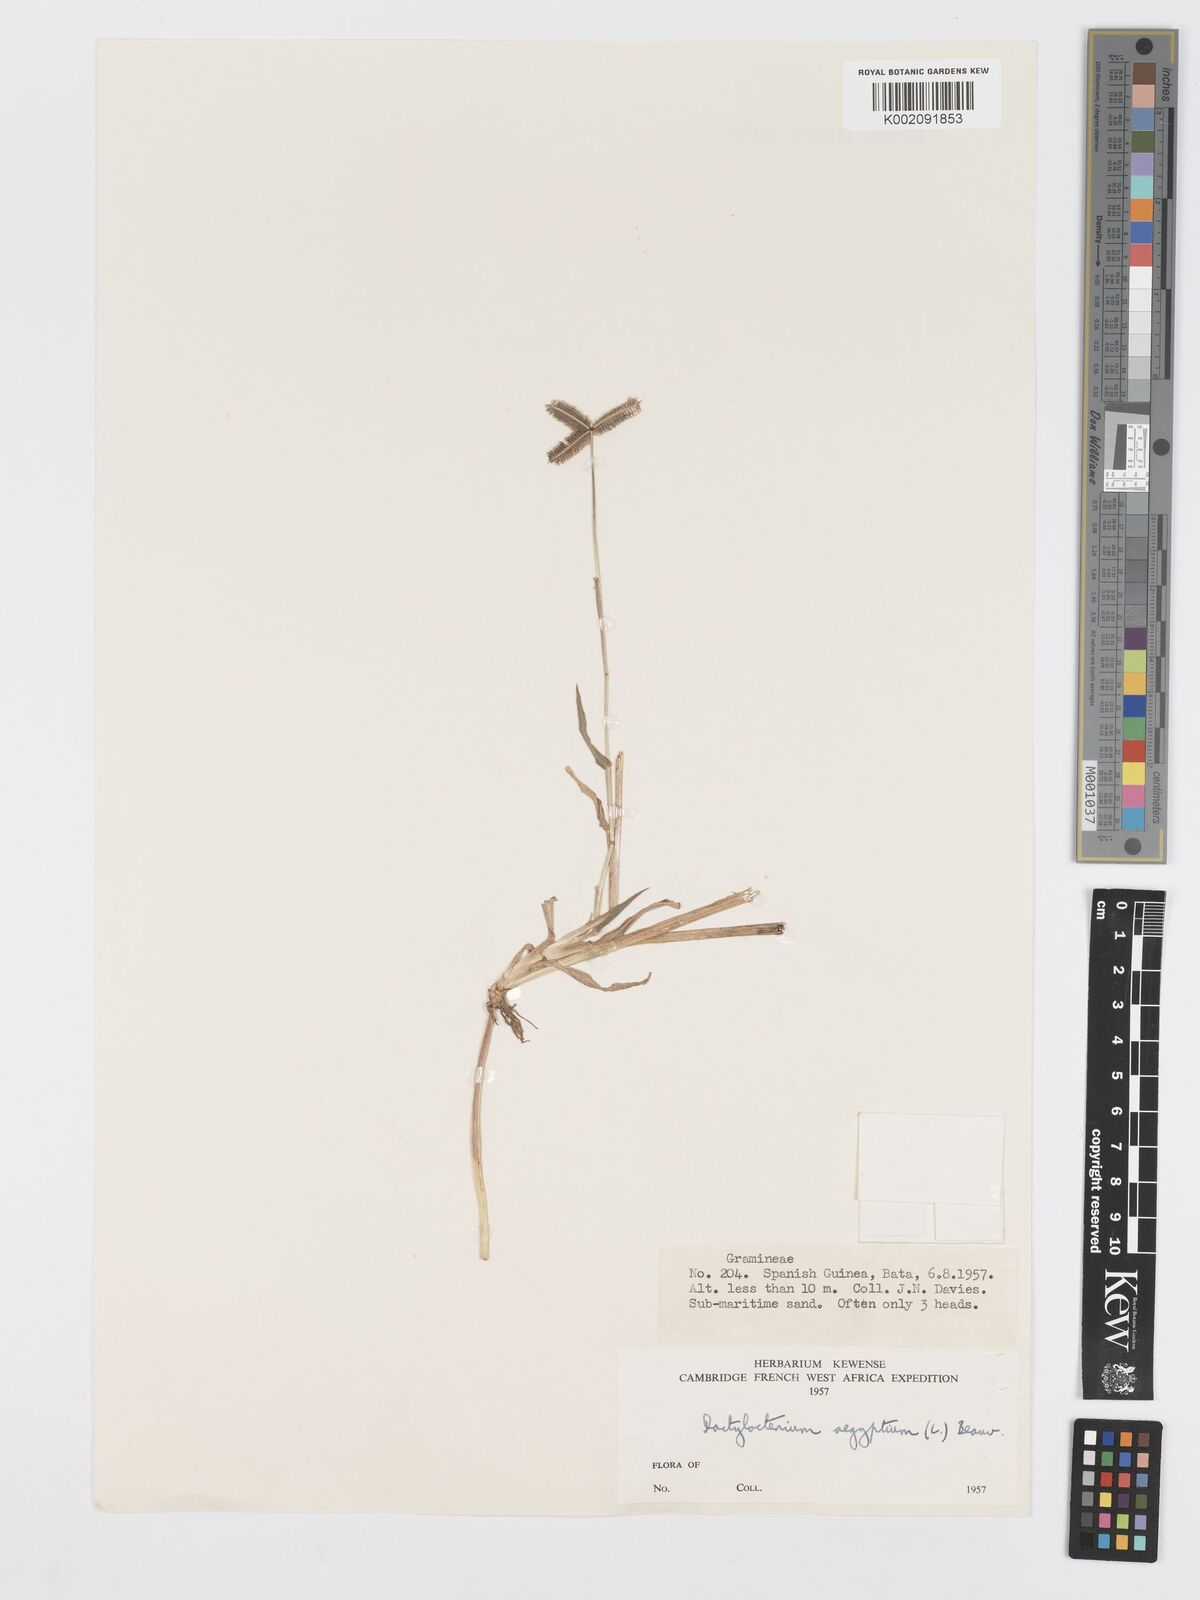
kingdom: Plantae
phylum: Tracheophyta
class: Liliopsida
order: Poales
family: Poaceae
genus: Dactyloctenium
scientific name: Dactyloctenium aegyptium
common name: Egyptian grass
